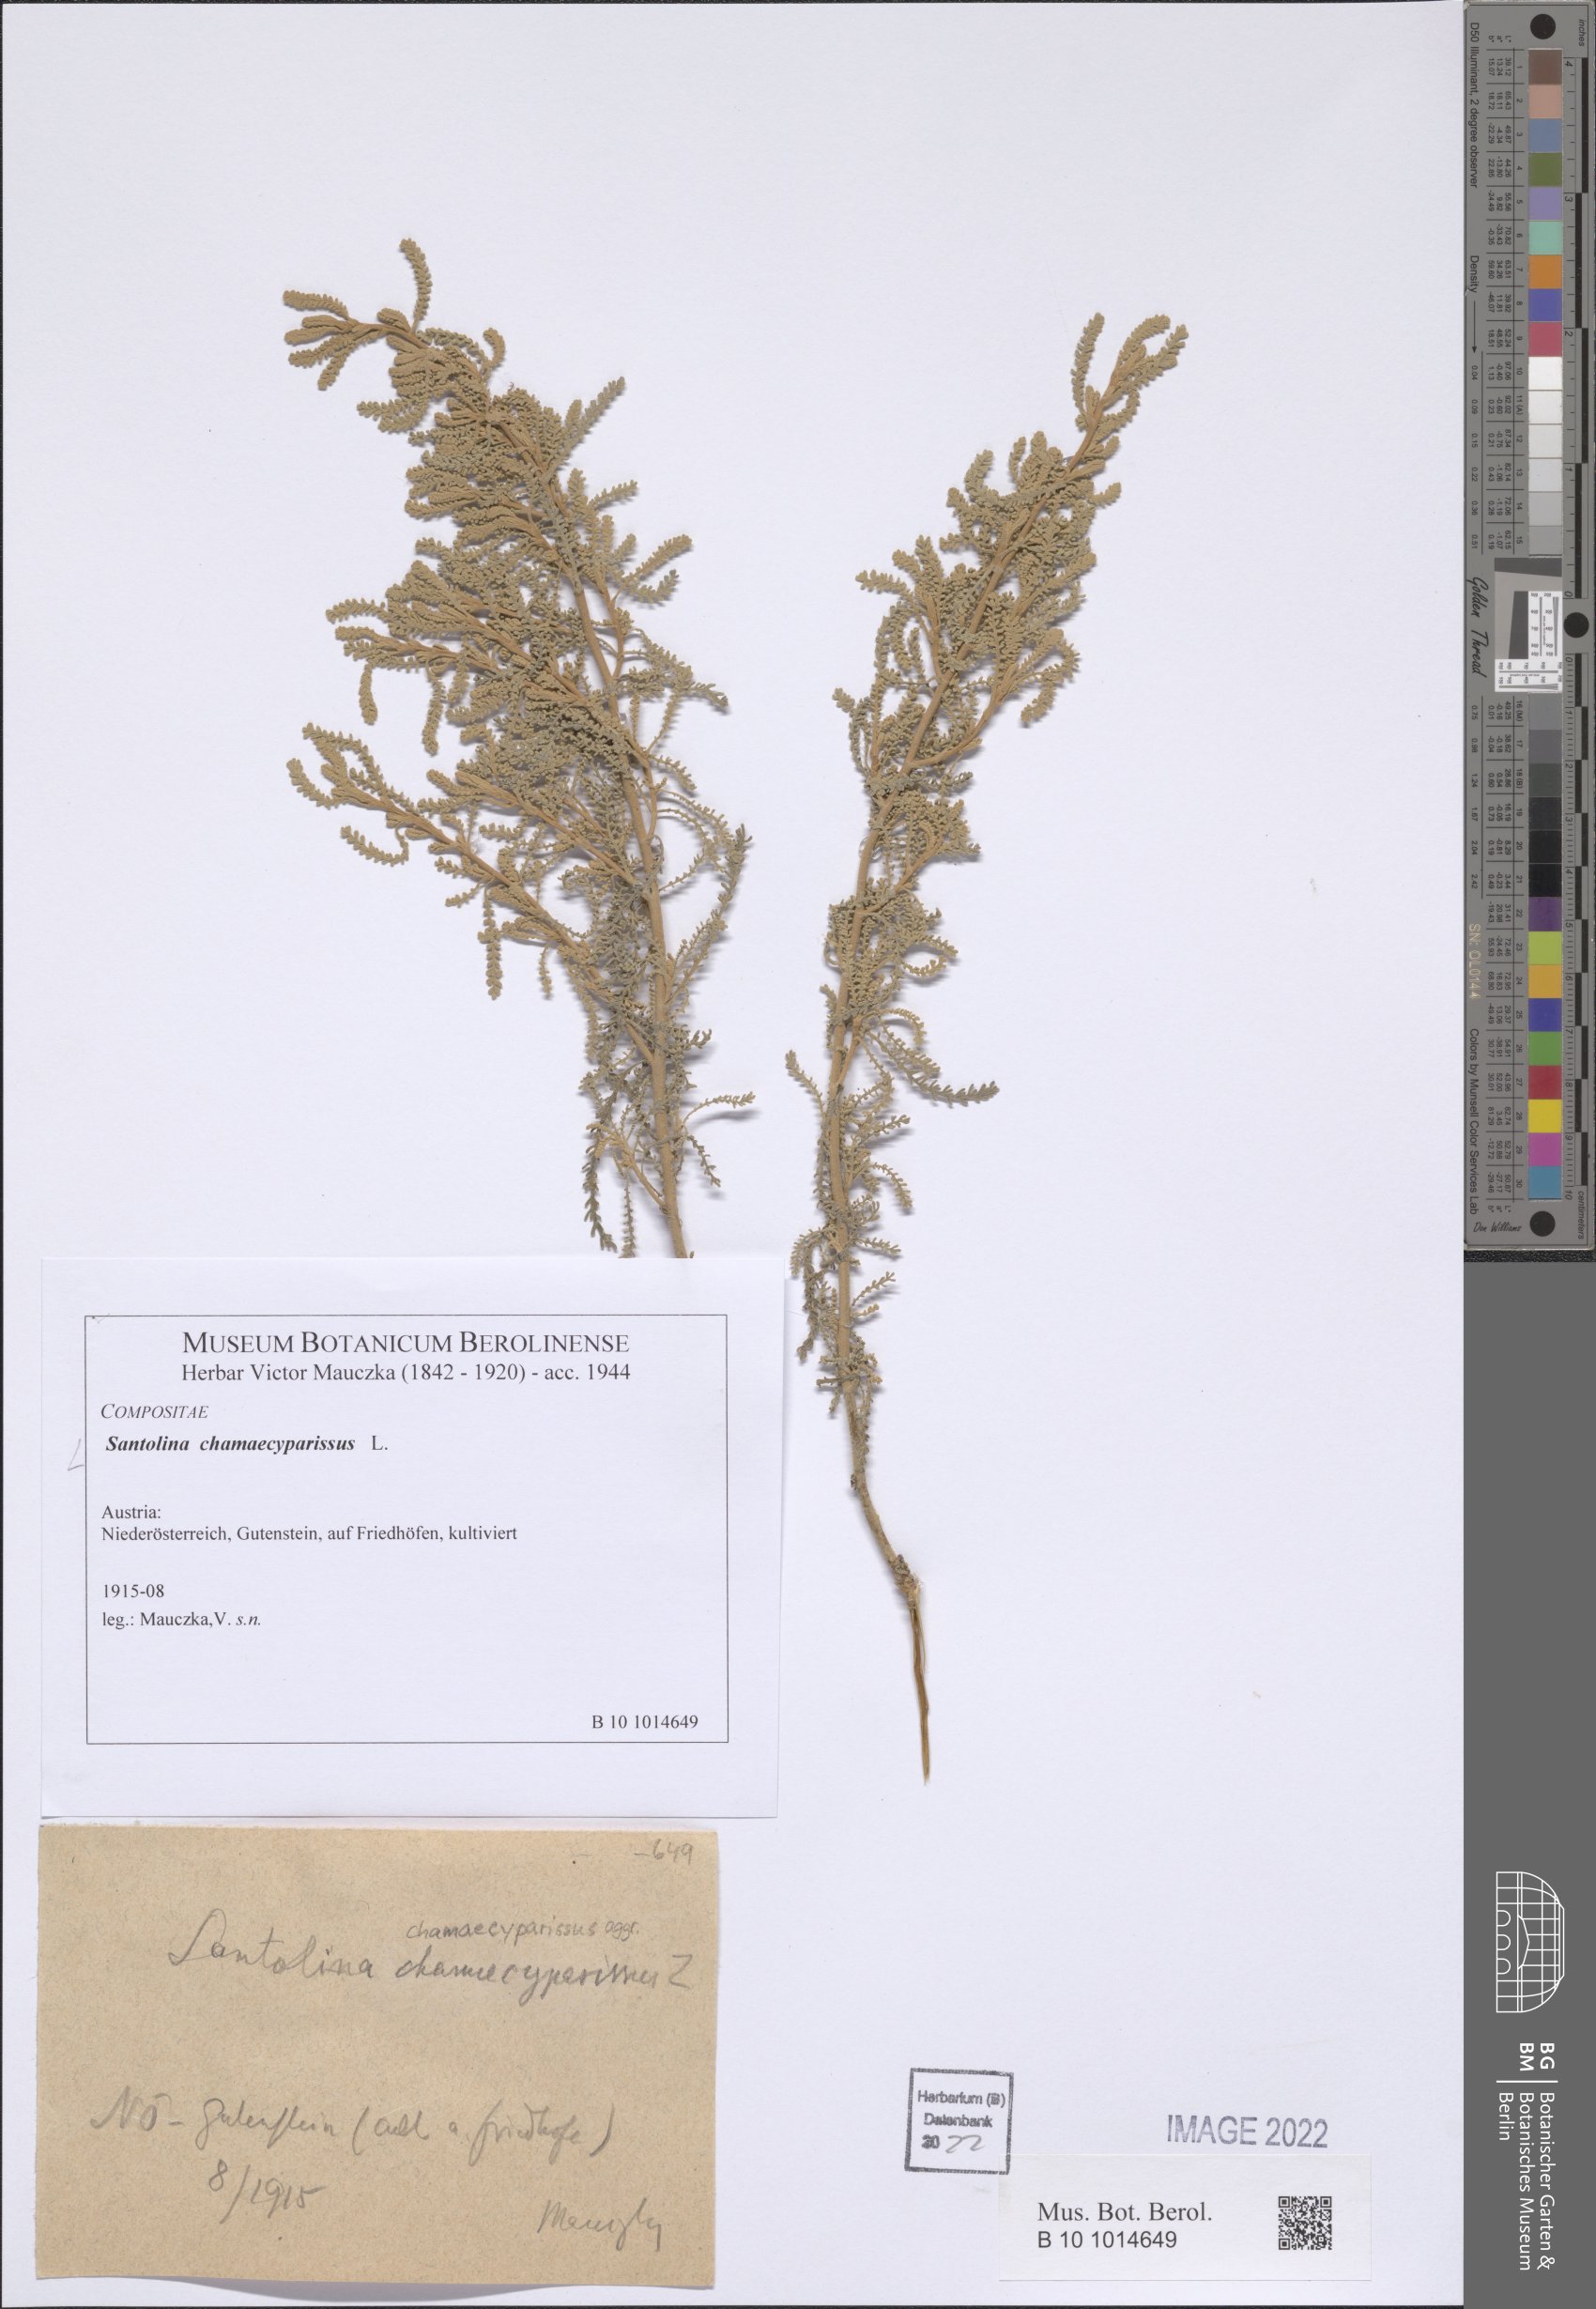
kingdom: Plantae
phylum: Tracheophyta
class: Magnoliopsida
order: Asterales
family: Asteraceae
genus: Santolina
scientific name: Santolina chamaecyparissus
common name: Lavender-cotton
